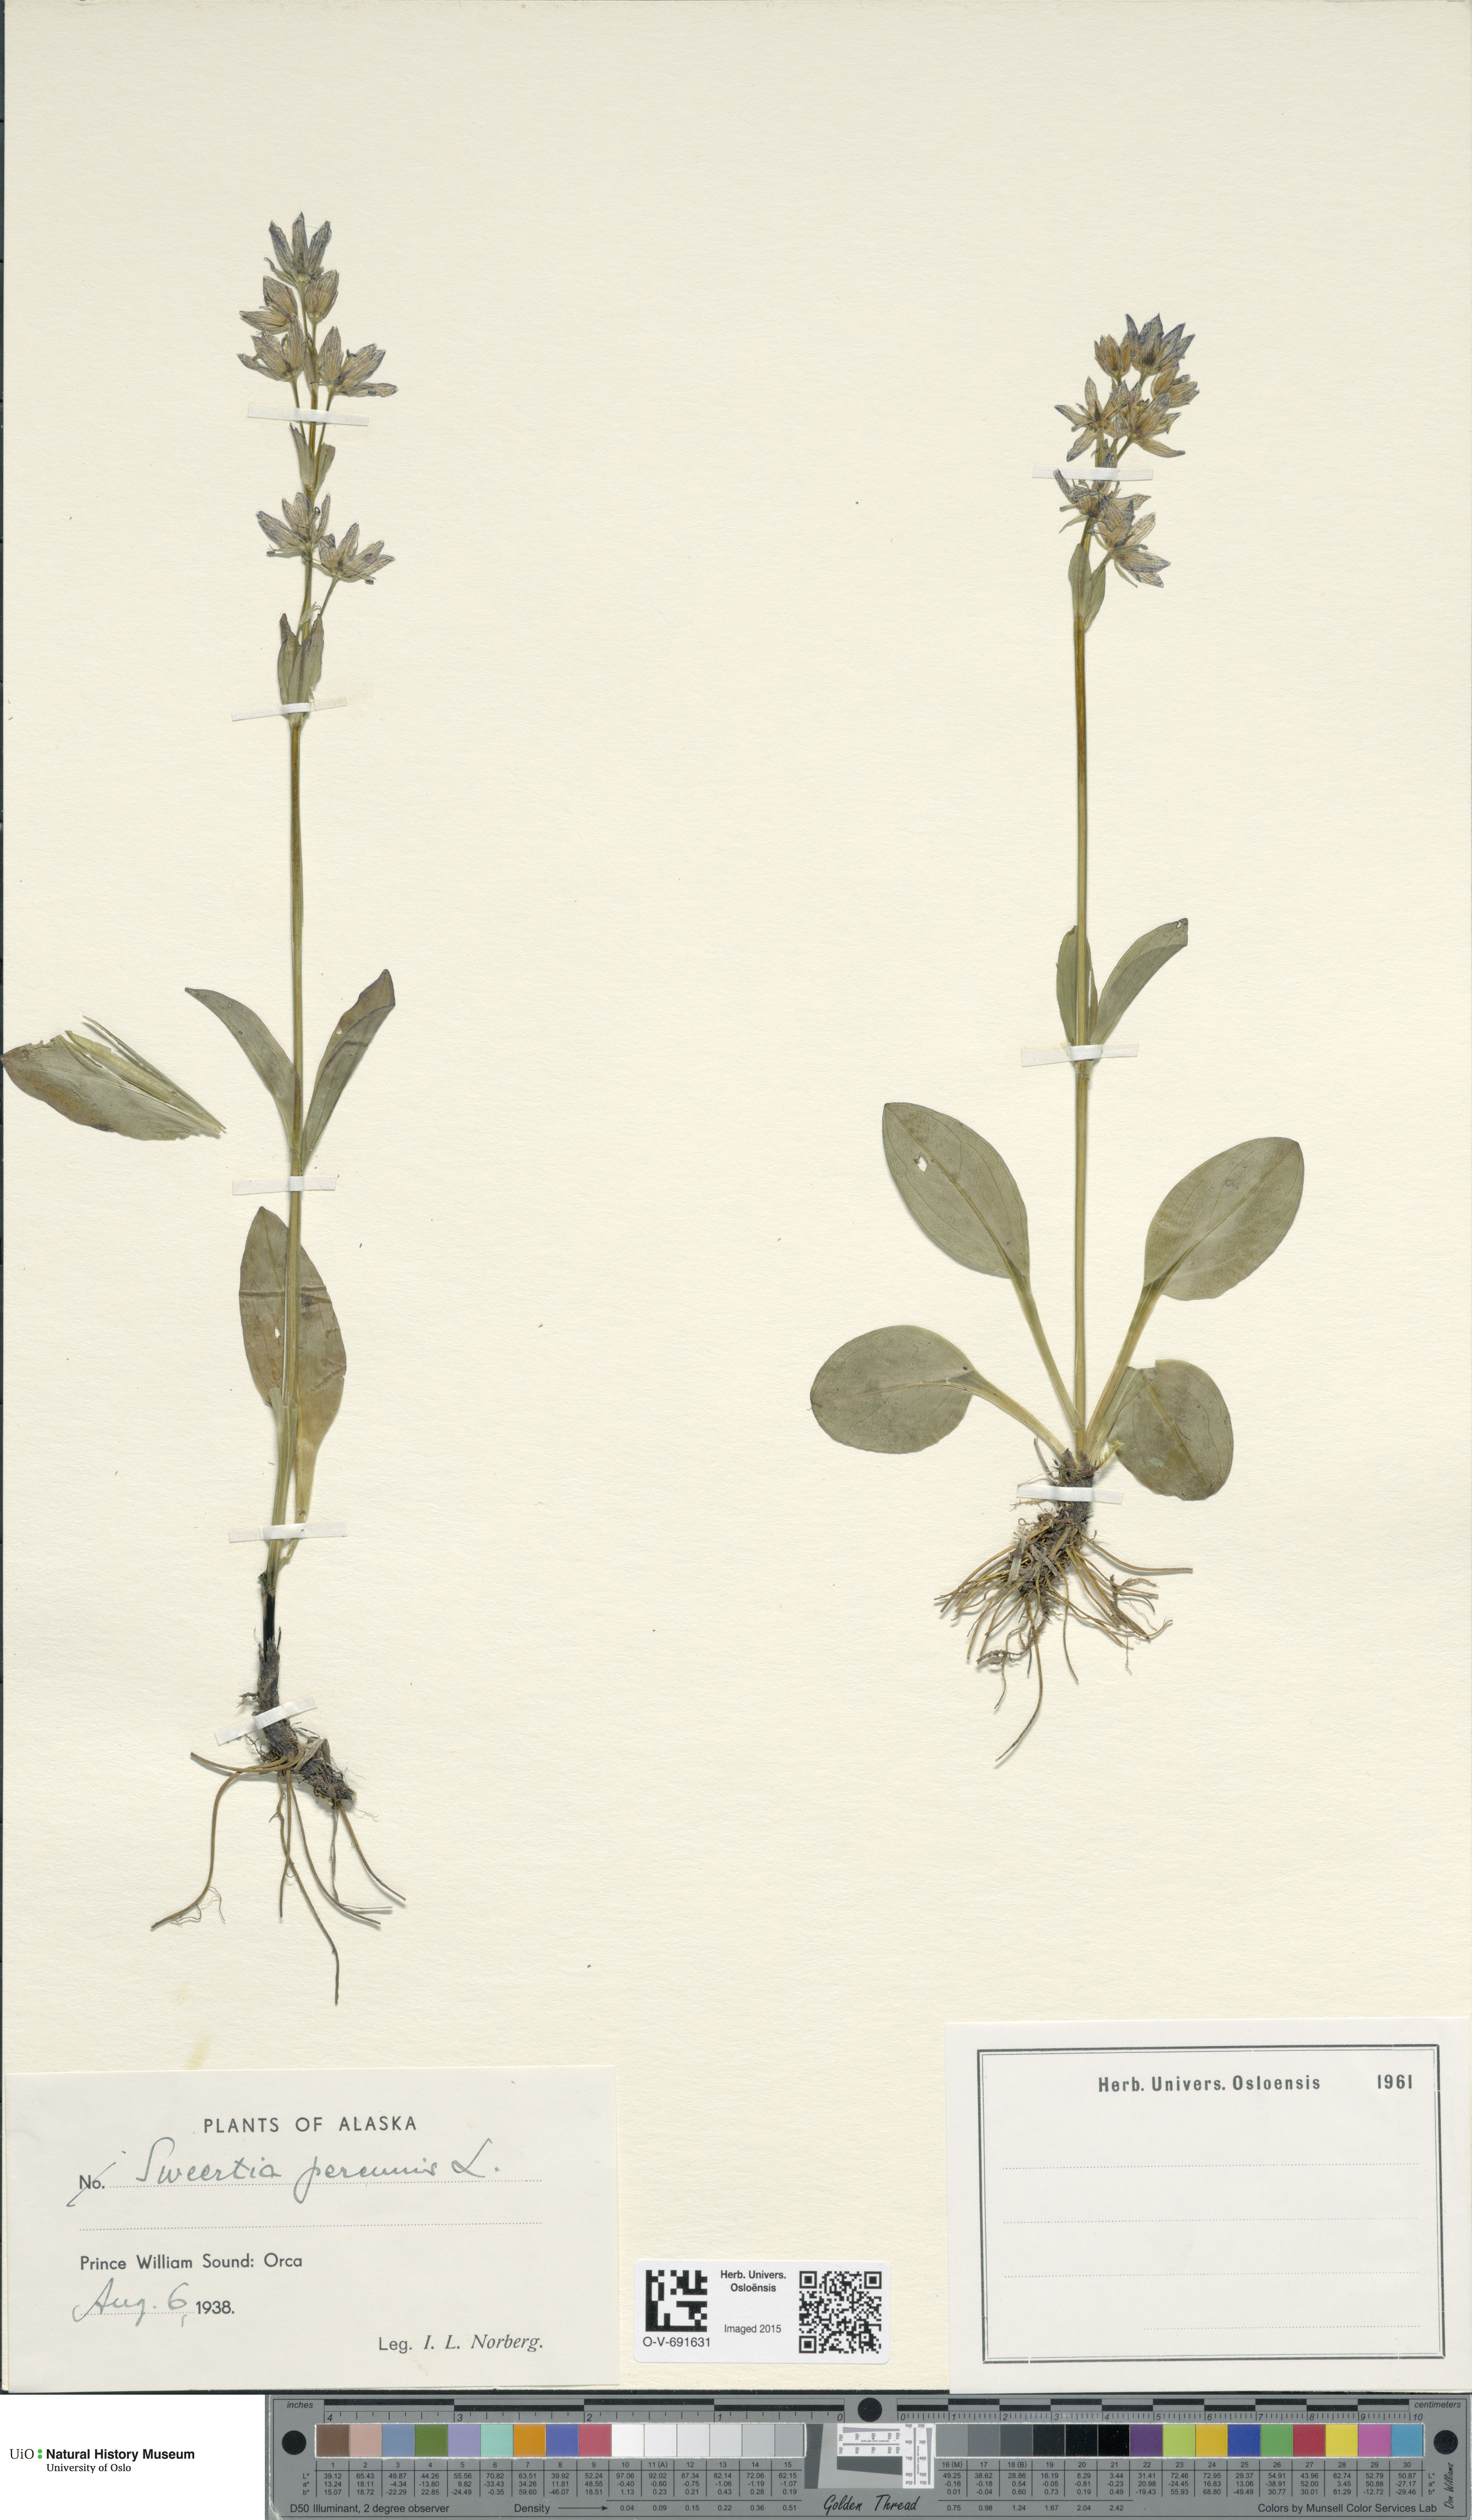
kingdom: Plantae
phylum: Tracheophyta
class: Magnoliopsida
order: Gentianales
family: Gentianaceae
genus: Swertia
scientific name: Swertia perennis
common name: Alpine bog swertia
